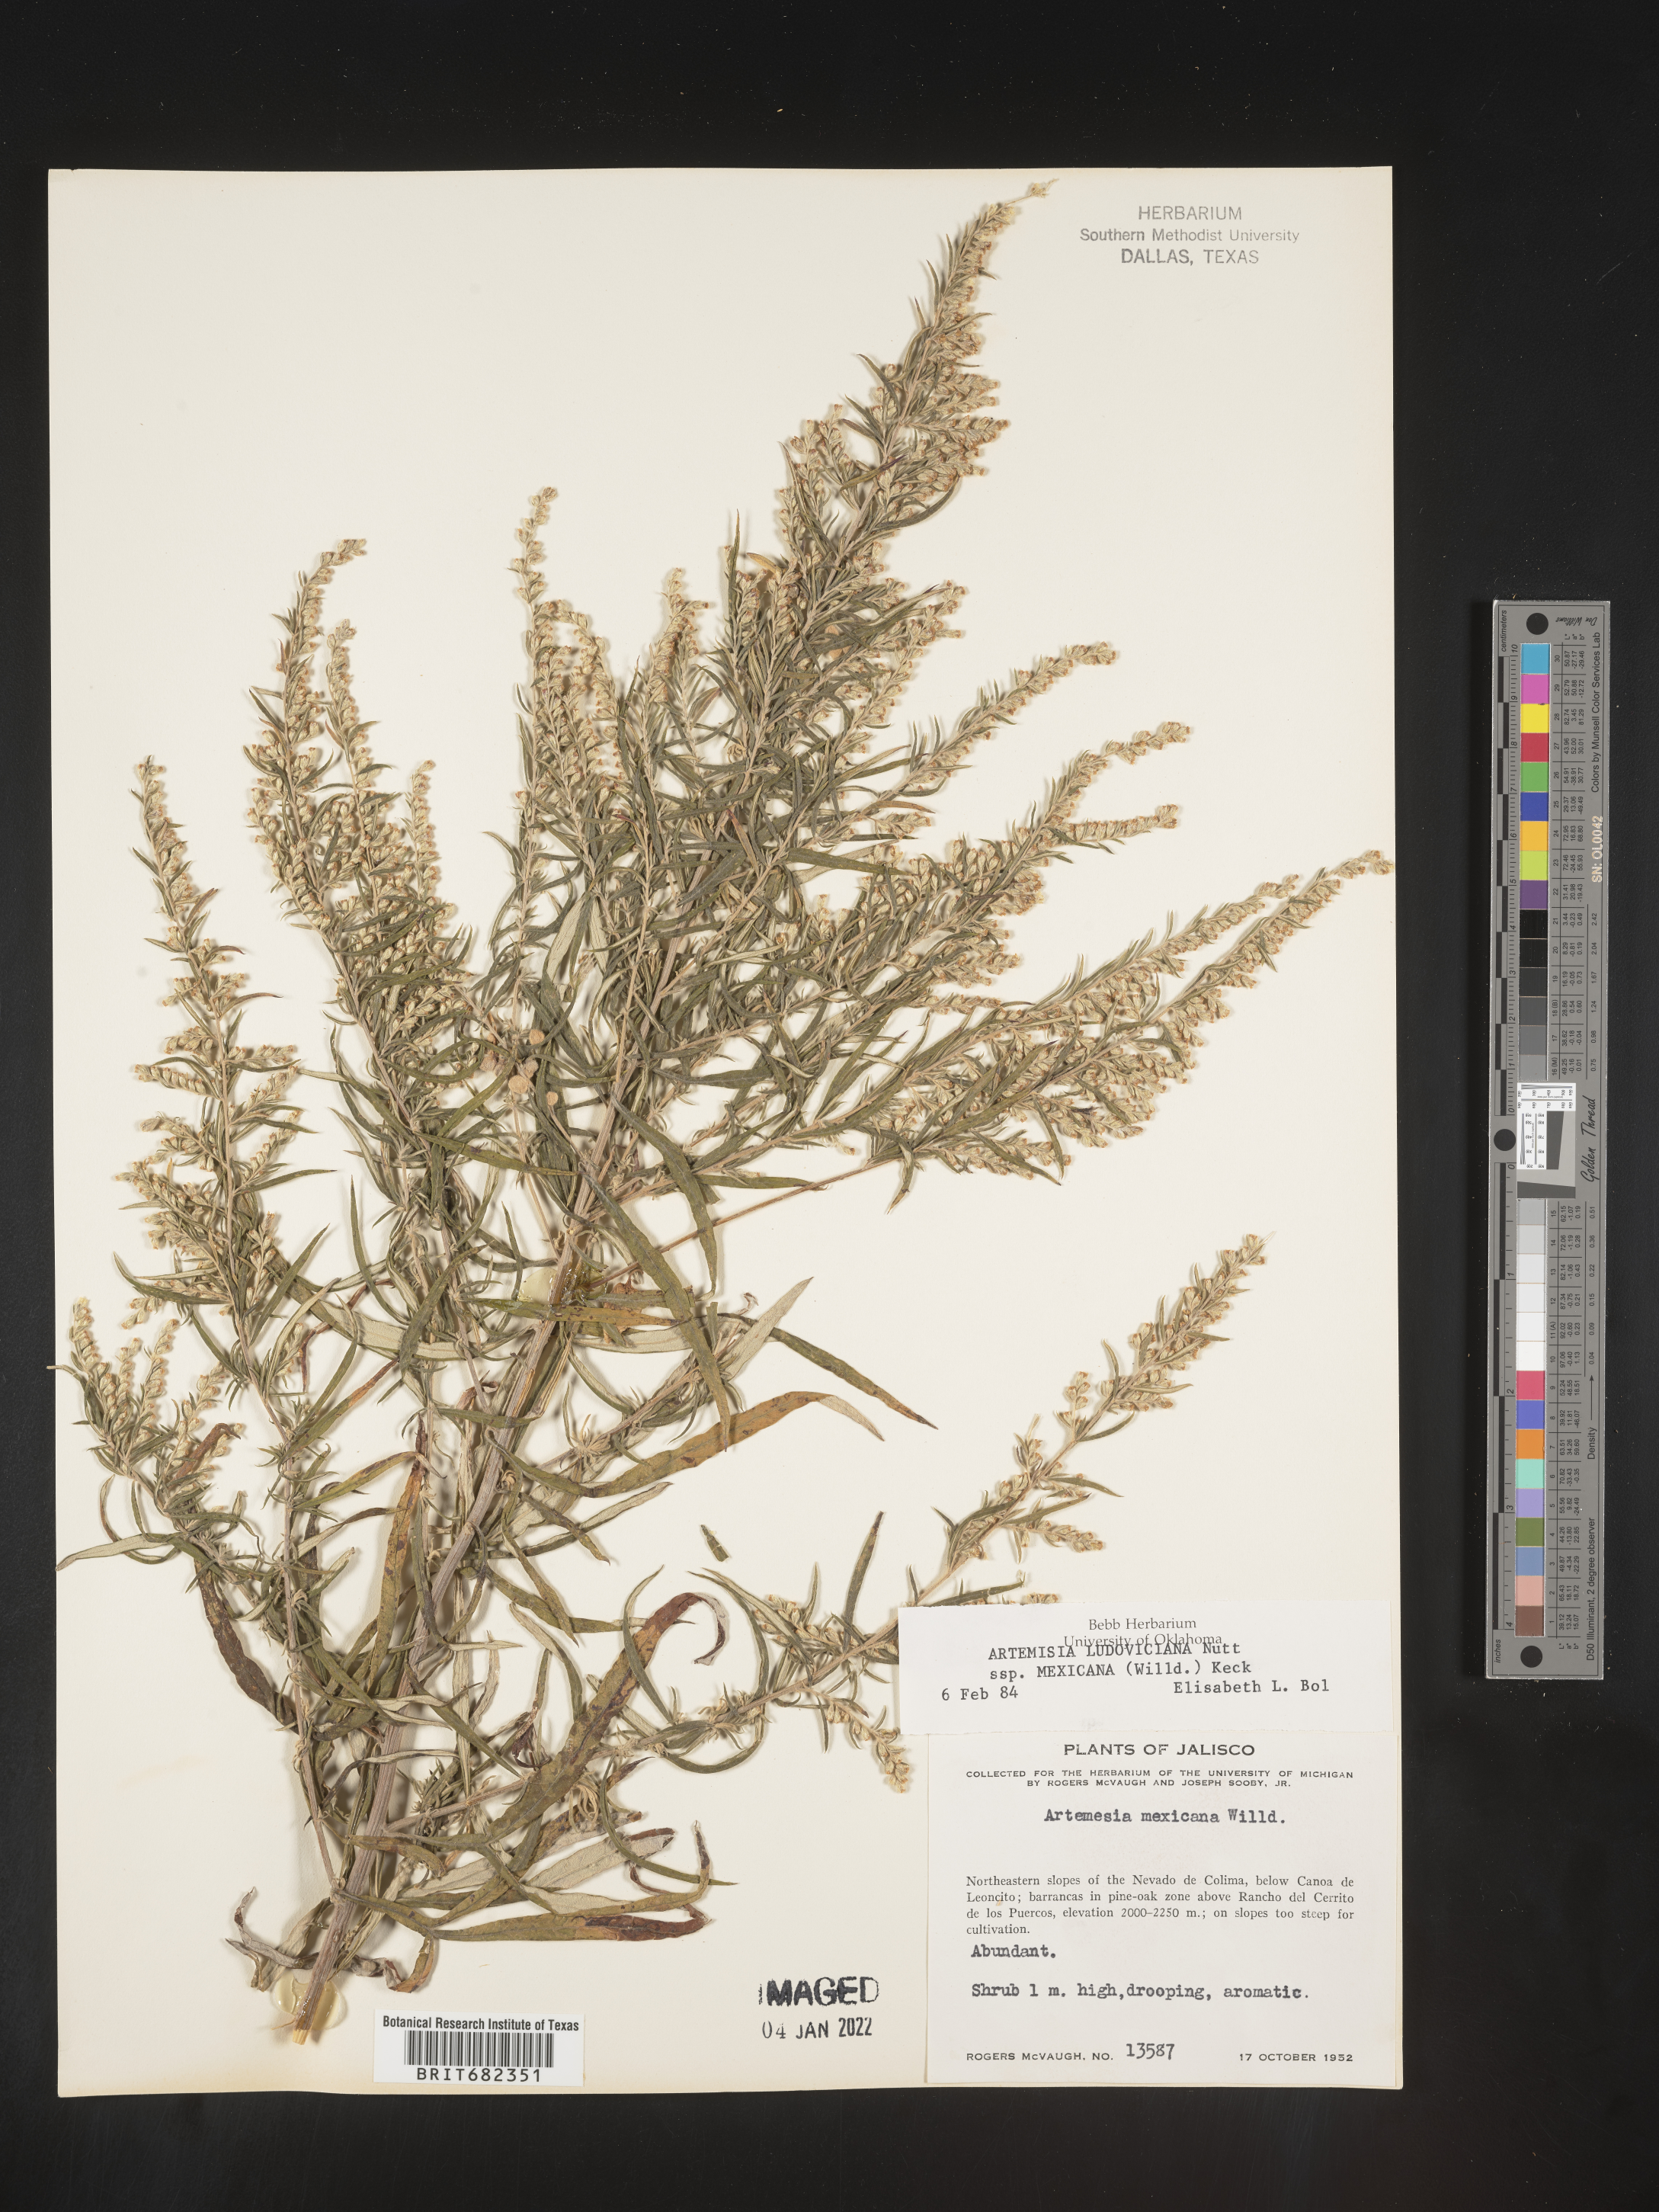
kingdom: Plantae
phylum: Tracheophyta
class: Magnoliopsida
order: Asterales
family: Asteraceae
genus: Artemisia
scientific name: Artemisia
